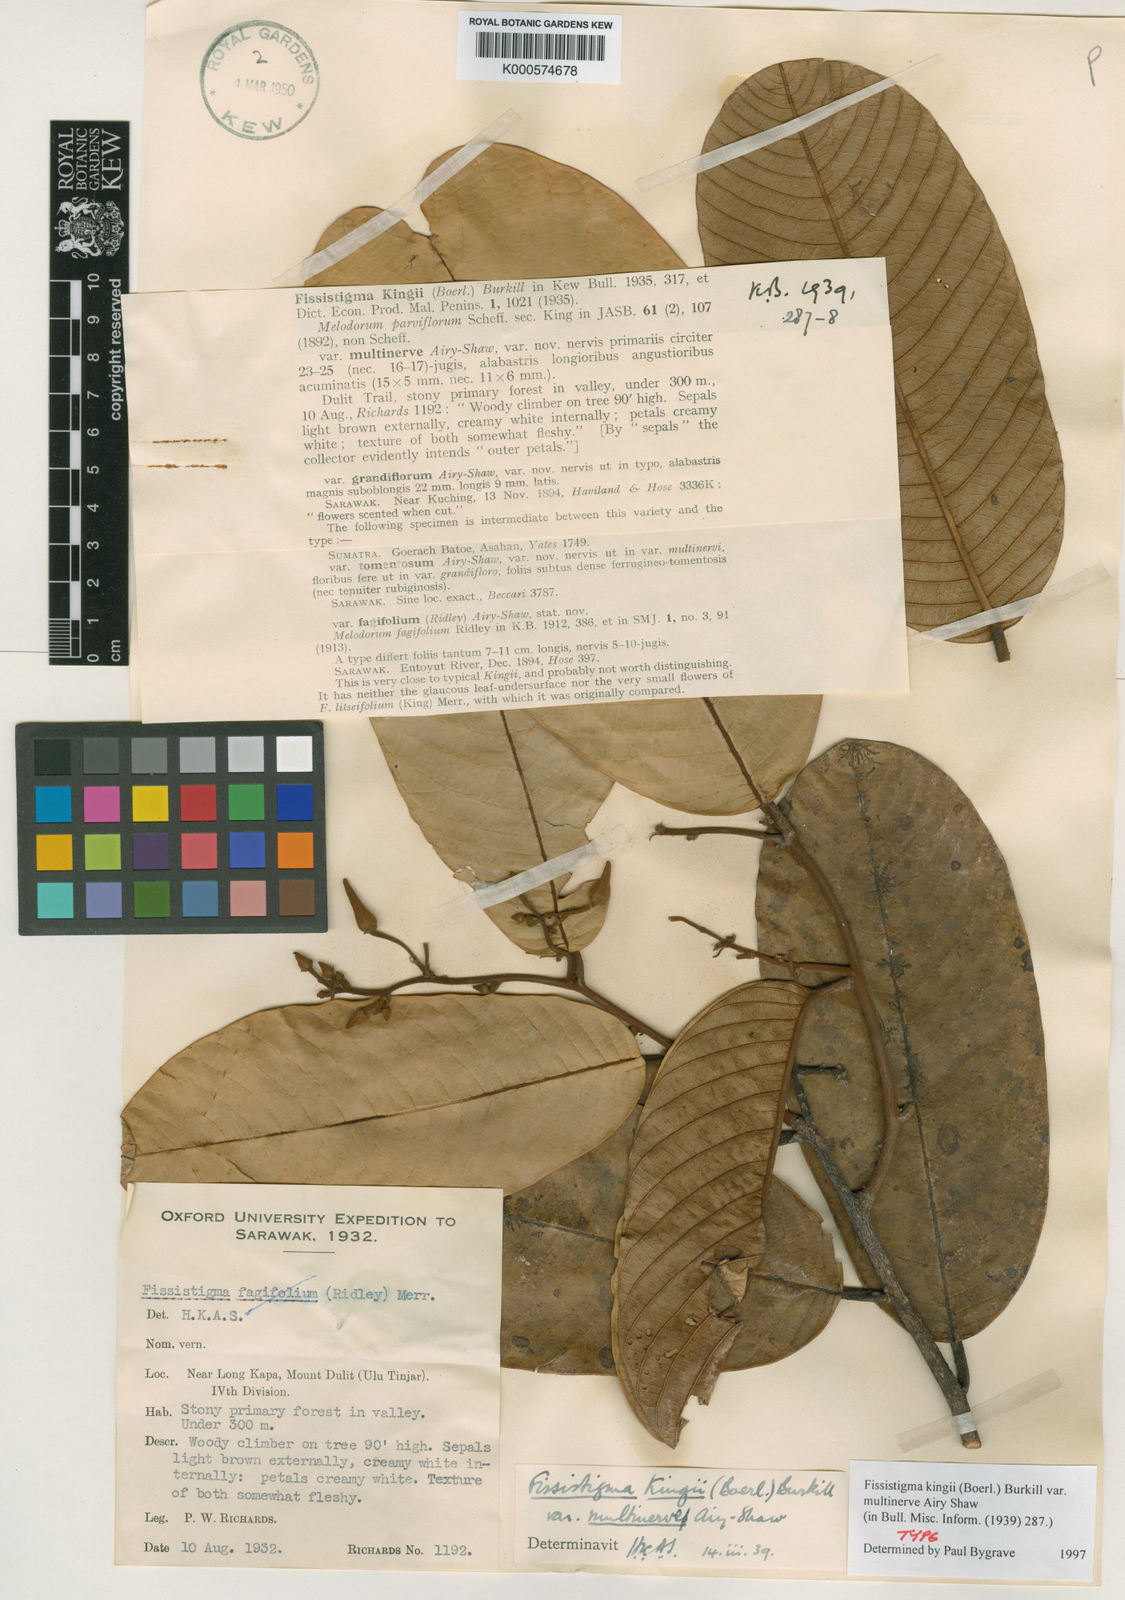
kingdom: Plantae
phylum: Tracheophyta
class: Magnoliopsida
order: Magnoliales
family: Annonaceae
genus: Fissistigma
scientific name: Fissistigma kingii
